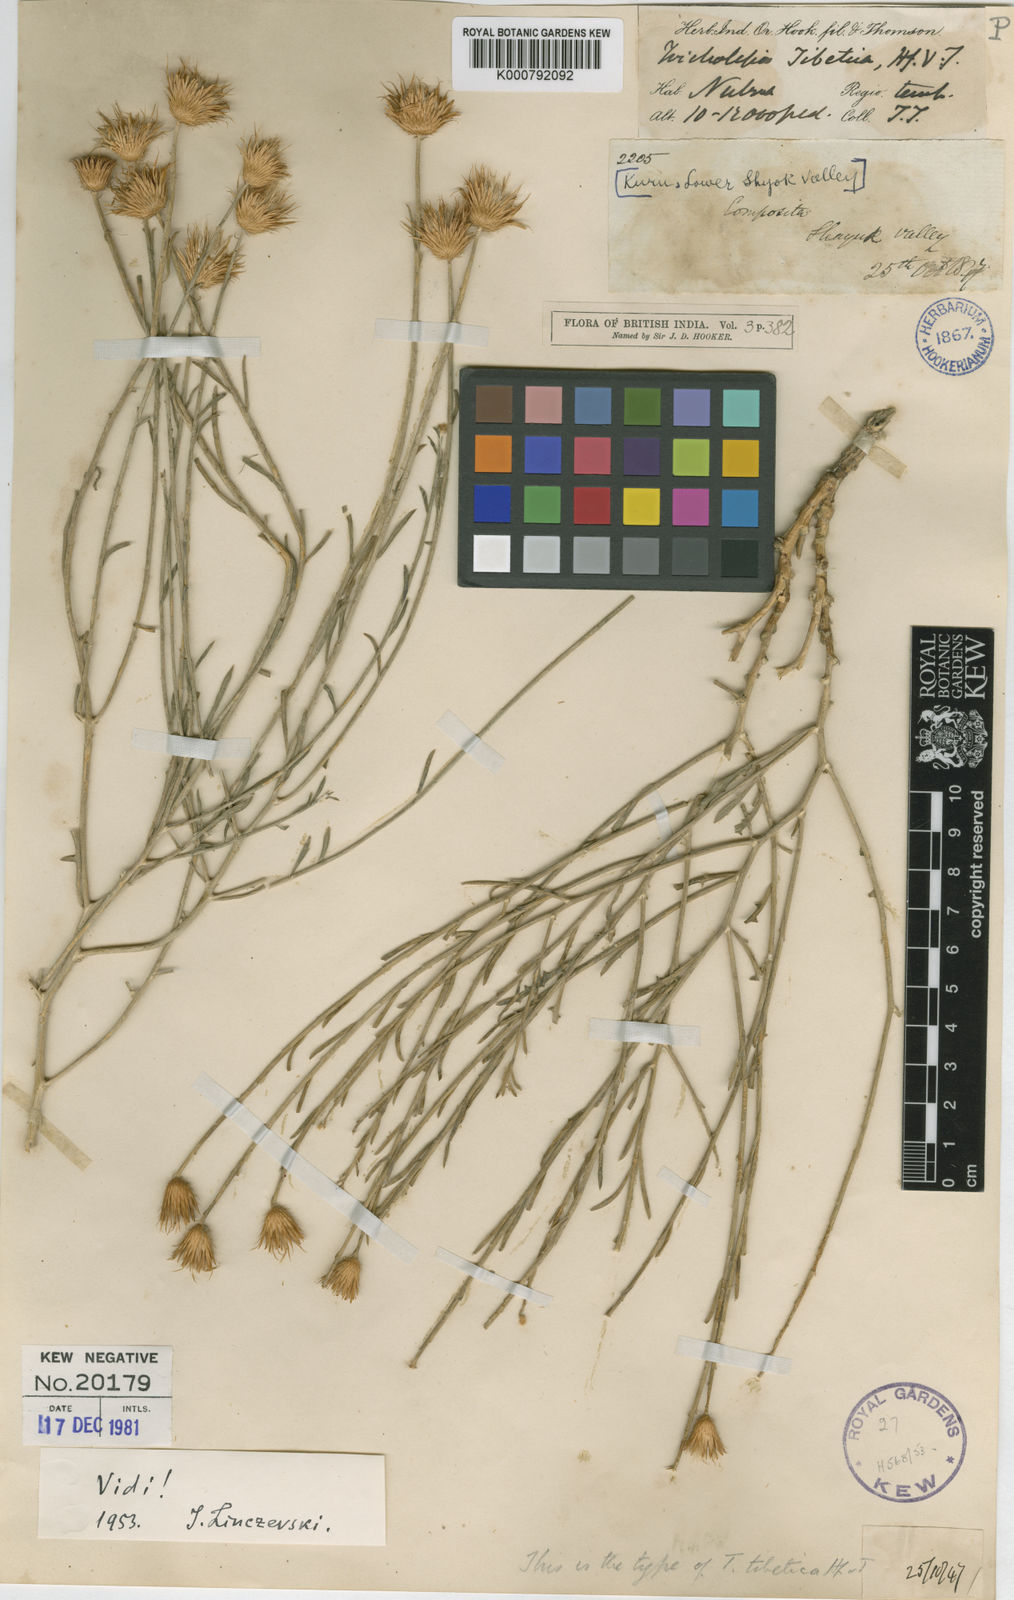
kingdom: Plantae
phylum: Tracheophyta
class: Magnoliopsida
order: Asterales
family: Asteraceae
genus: Tricholepis
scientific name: Tricholepis
